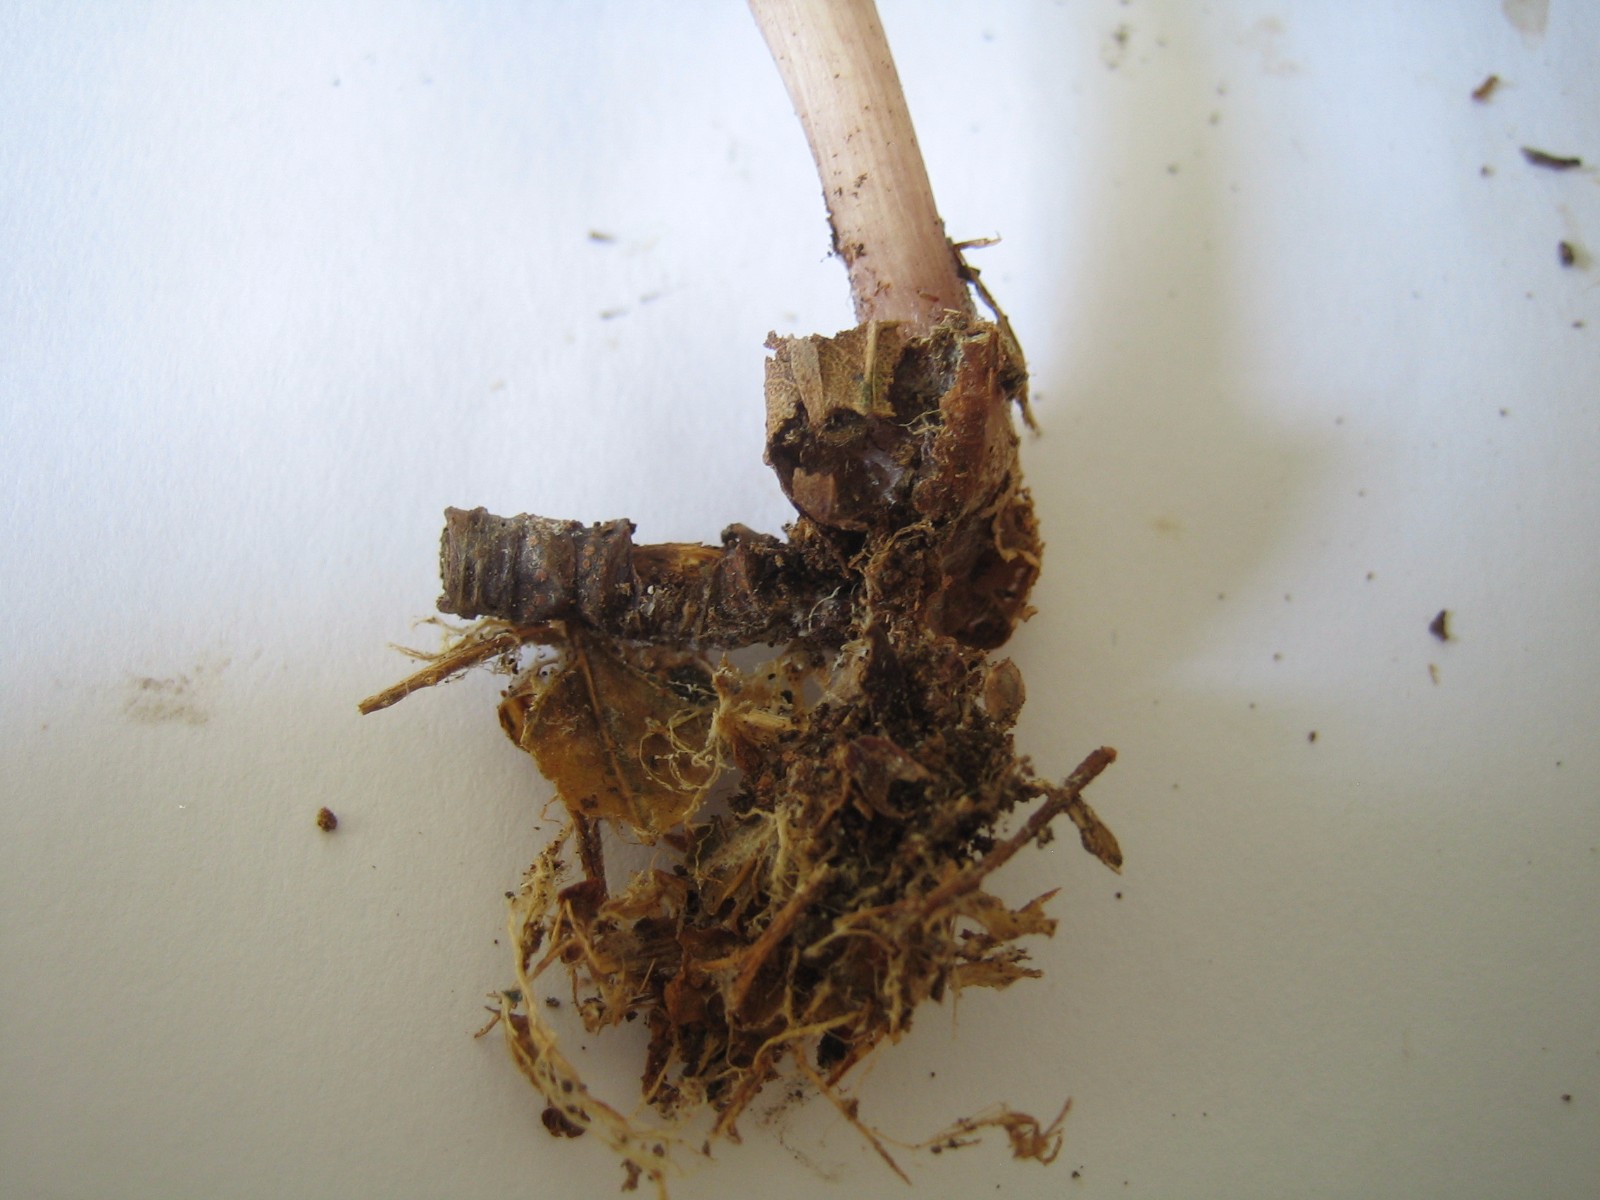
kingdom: Fungi
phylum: Basidiomycota
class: Agaricomycetes
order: Agaricales
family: Mycenaceae
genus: Mycena
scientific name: Mycena pelianthina
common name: mørkbladet huesvamp
